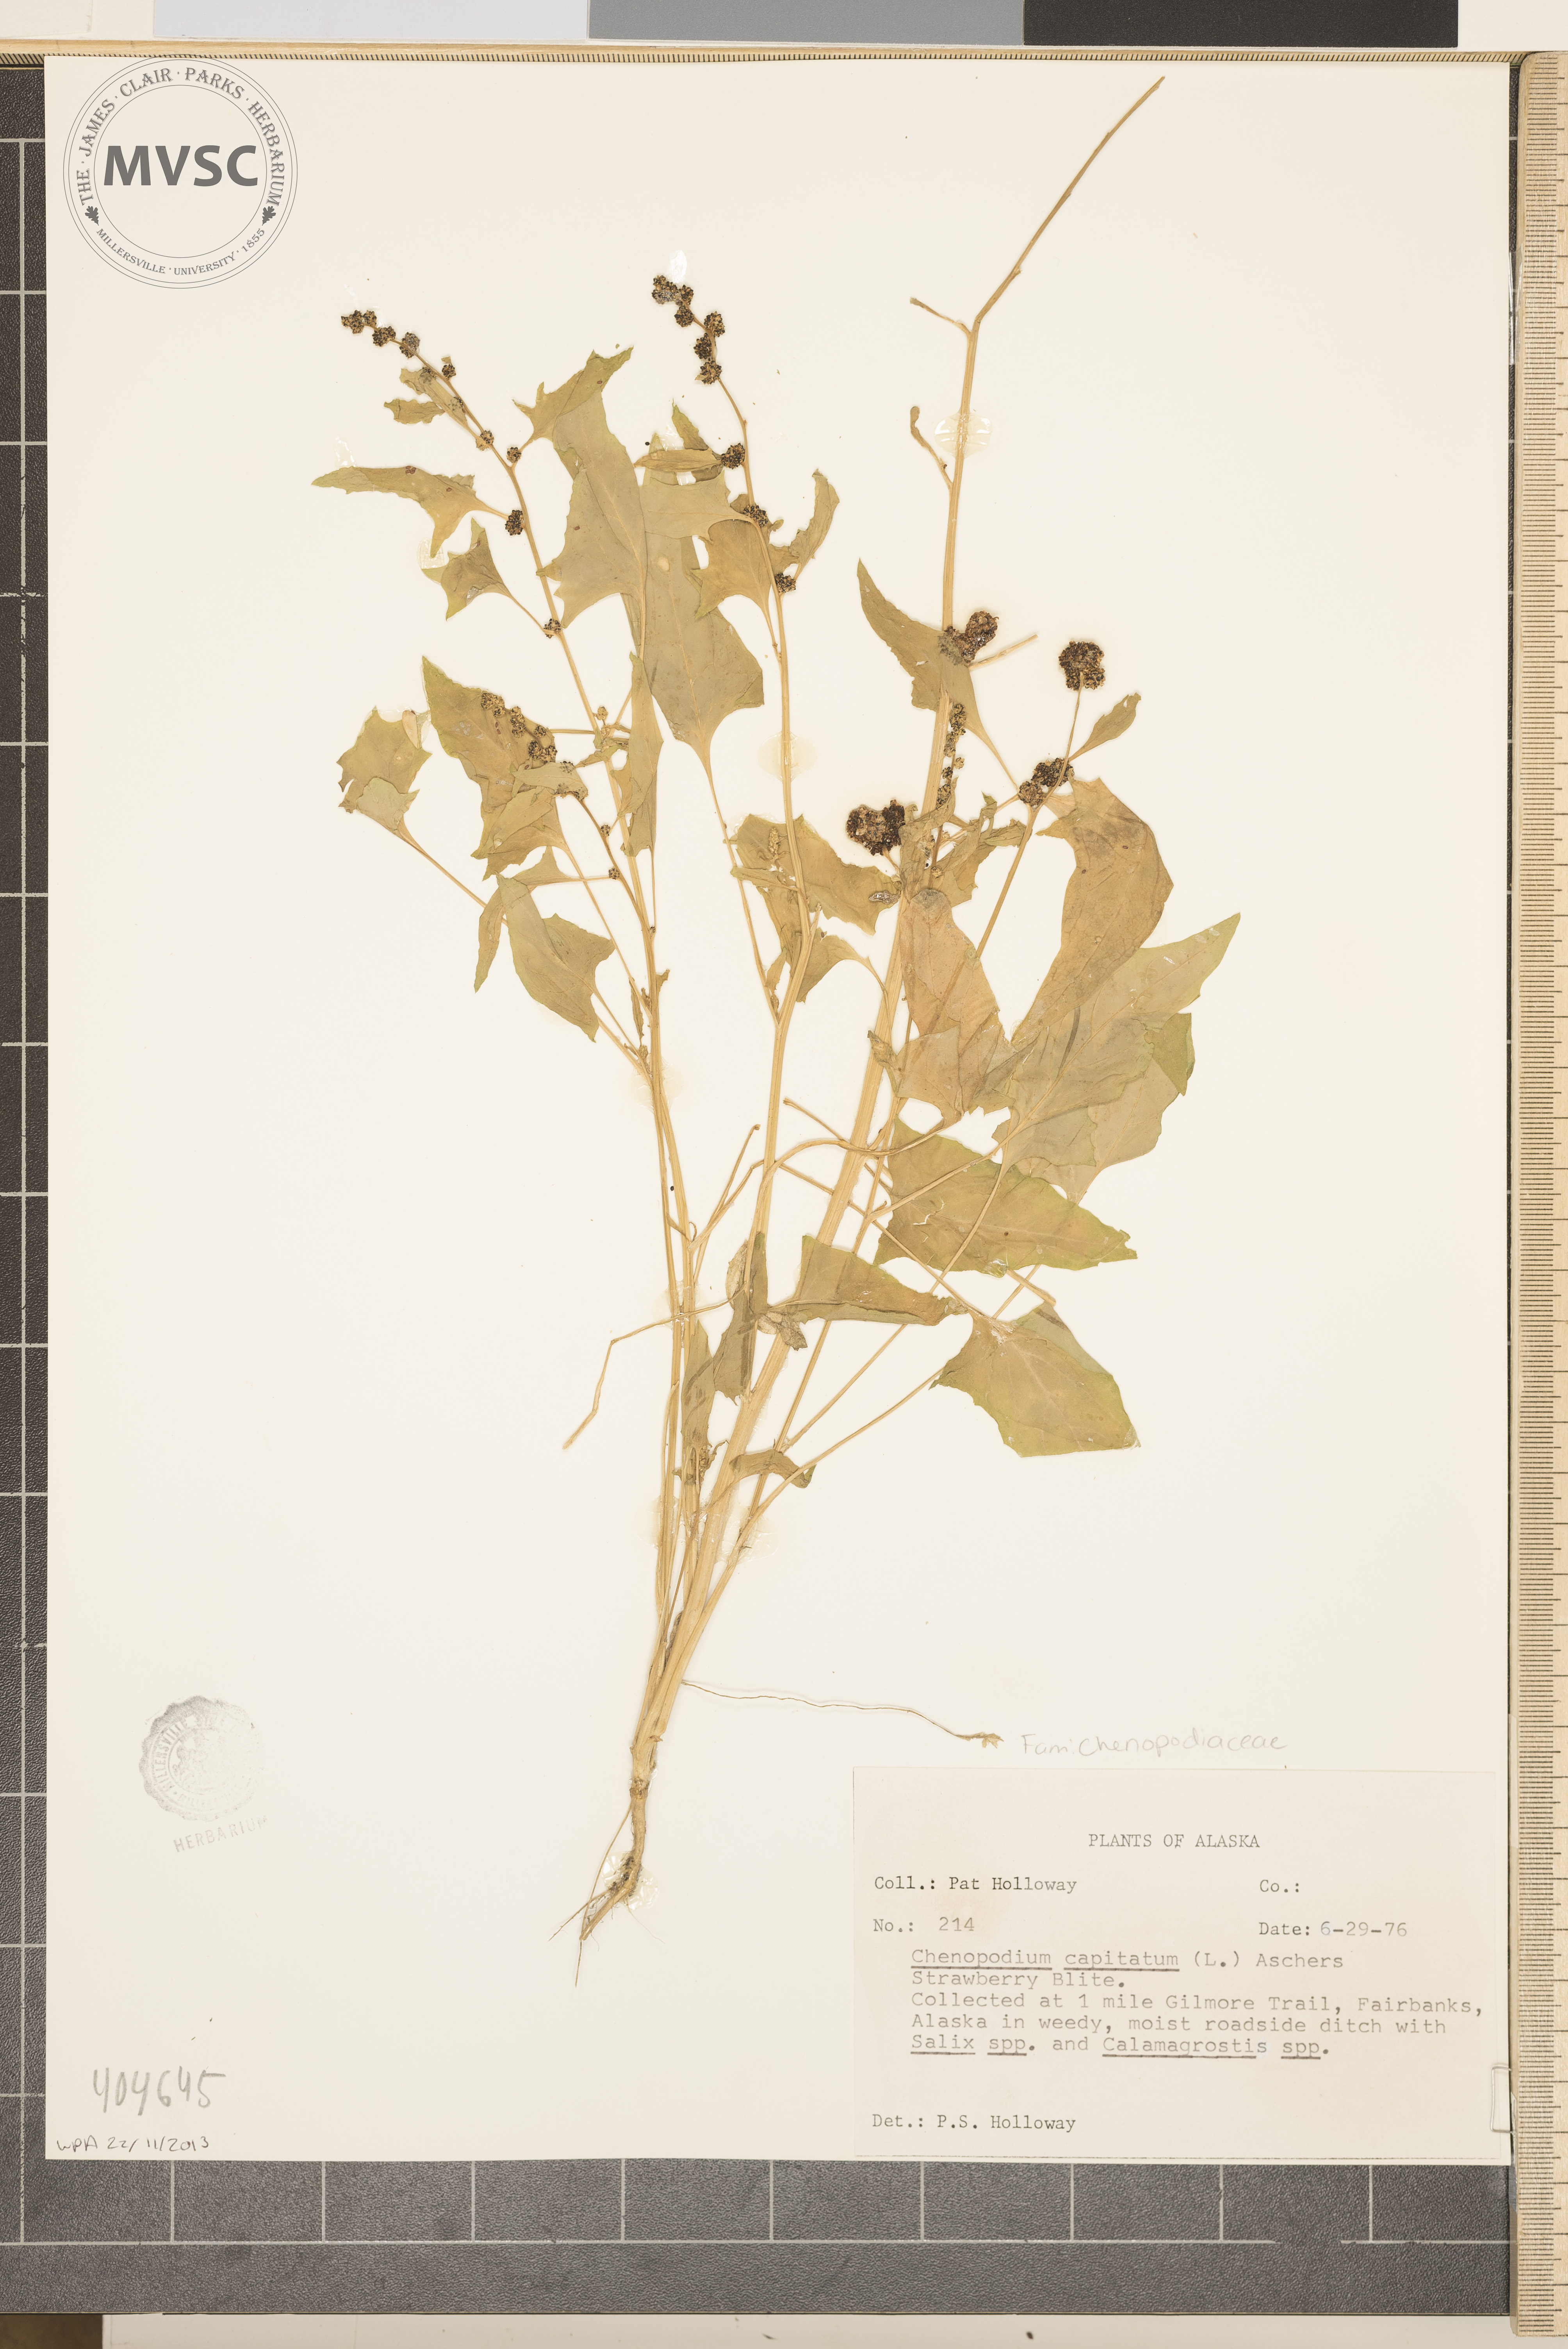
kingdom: Plantae
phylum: Tracheophyta
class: Magnoliopsida
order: Caryophyllales
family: Amaranthaceae
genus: Chenopodium
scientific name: Chenopodium capitatum
